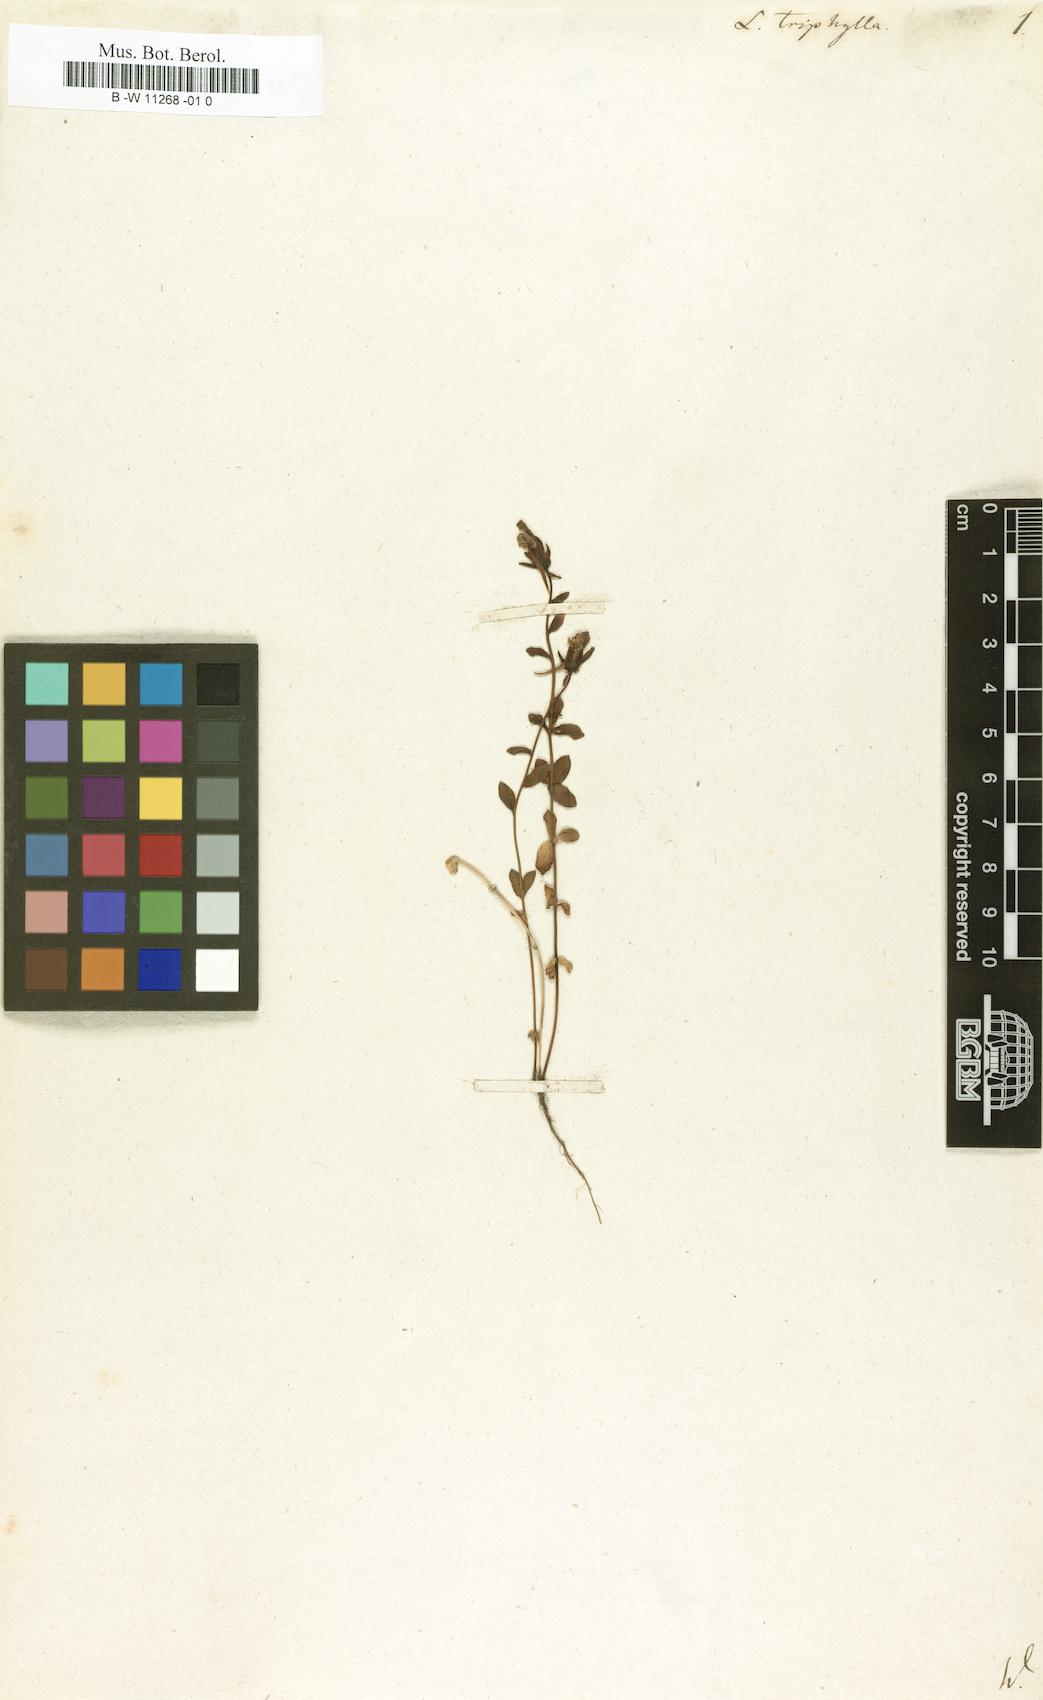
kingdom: Plantae
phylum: Tracheophyta
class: Magnoliopsida
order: Lamiales
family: Plantaginaceae
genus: Linaria
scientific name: Linaria triphylla
